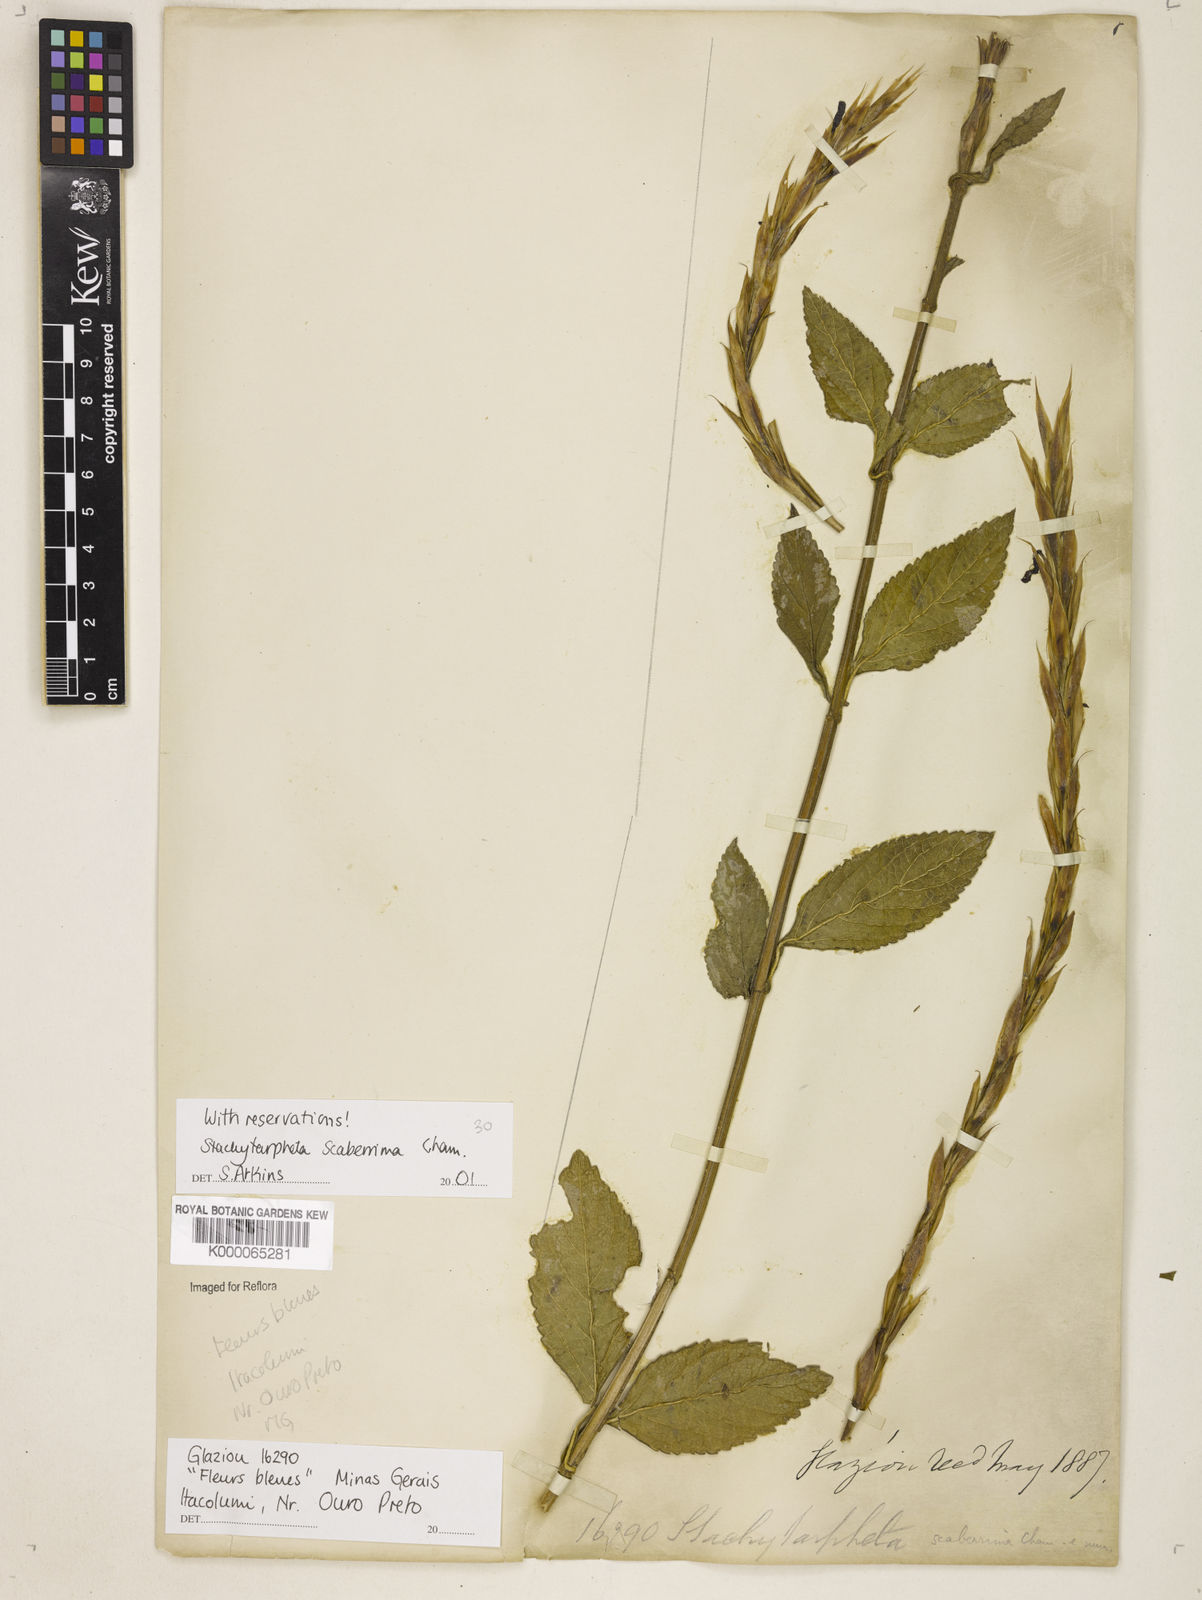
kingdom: Plantae
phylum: Tracheophyta
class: Magnoliopsida
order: Lamiales
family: Verbenaceae
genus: Stachytarpheta
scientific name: Stachytarpheta scaberrima
